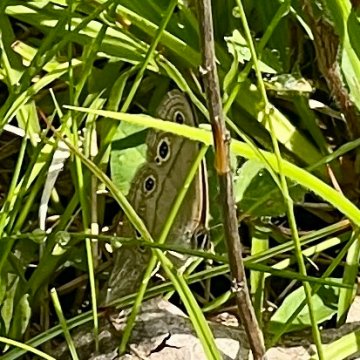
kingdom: Animalia
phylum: Arthropoda
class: Insecta
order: Lepidoptera
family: Nymphalidae
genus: Euptychia
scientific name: Euptychia cymela
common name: Little Wood Satyr
